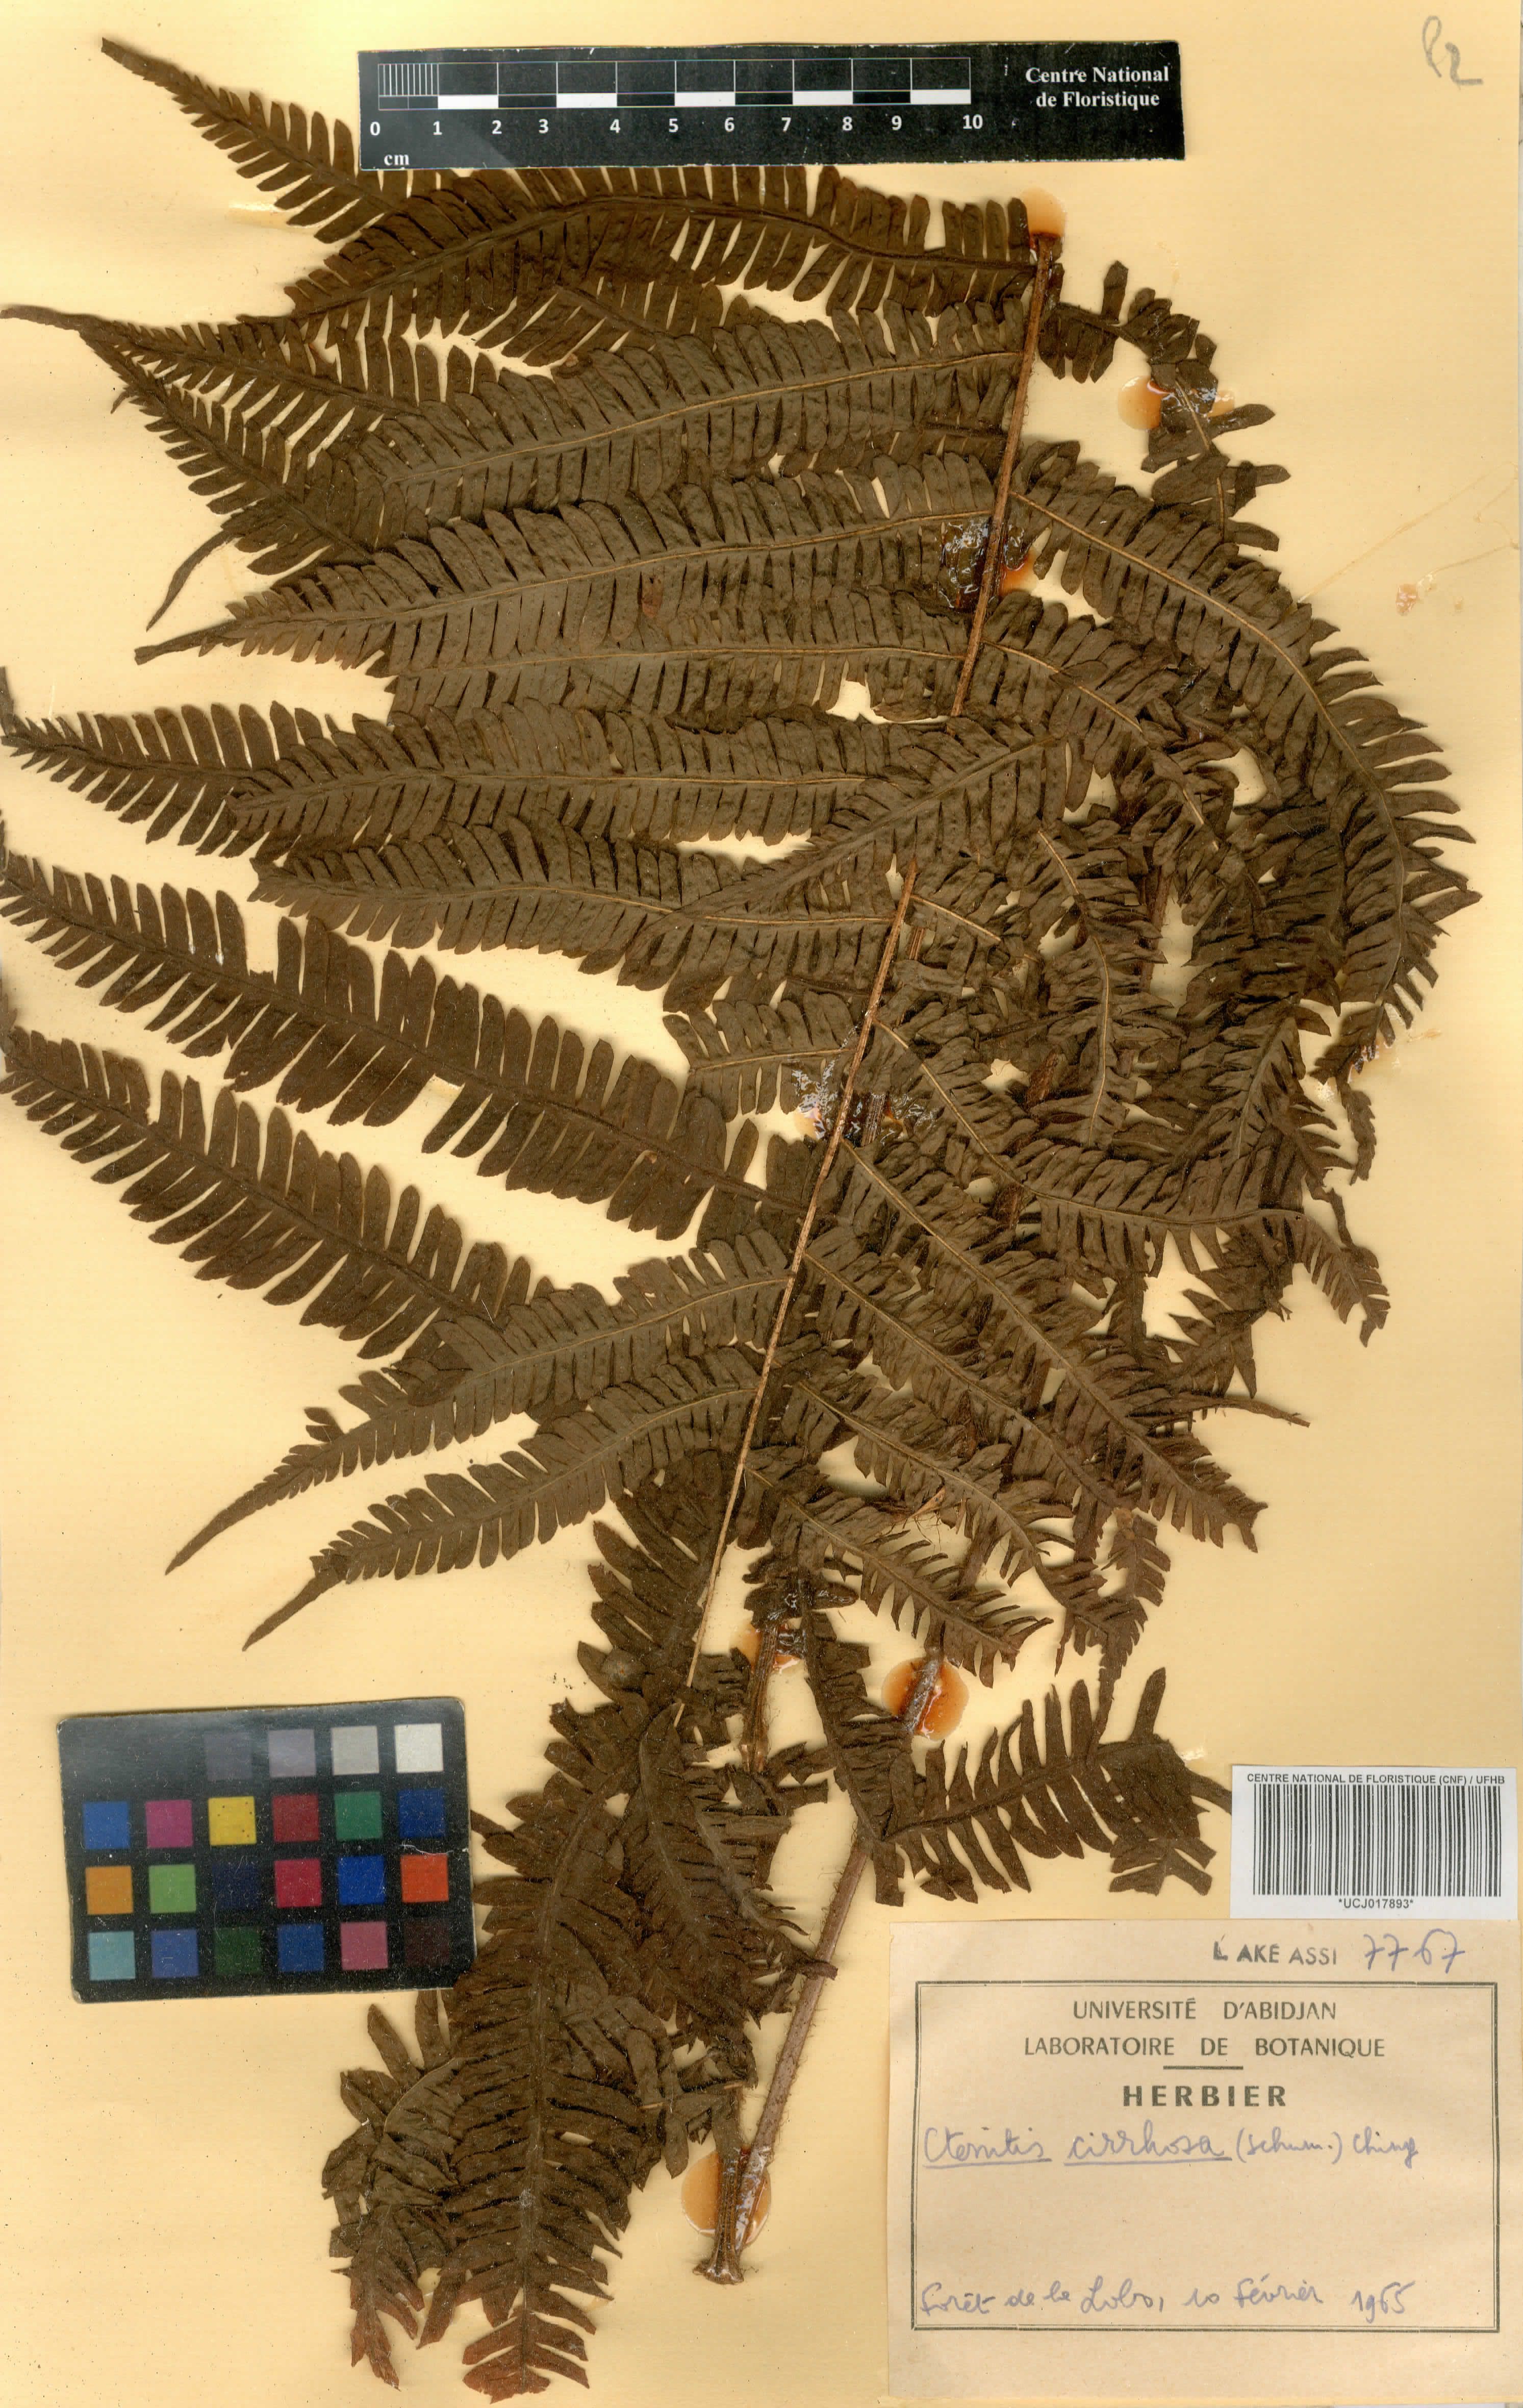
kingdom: Plantae
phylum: Tracheophyta
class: Polypodiopsida
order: Polypodiales
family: Dryopteridaceae
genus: Ctenitis
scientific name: Ctenitis cirrhosa
